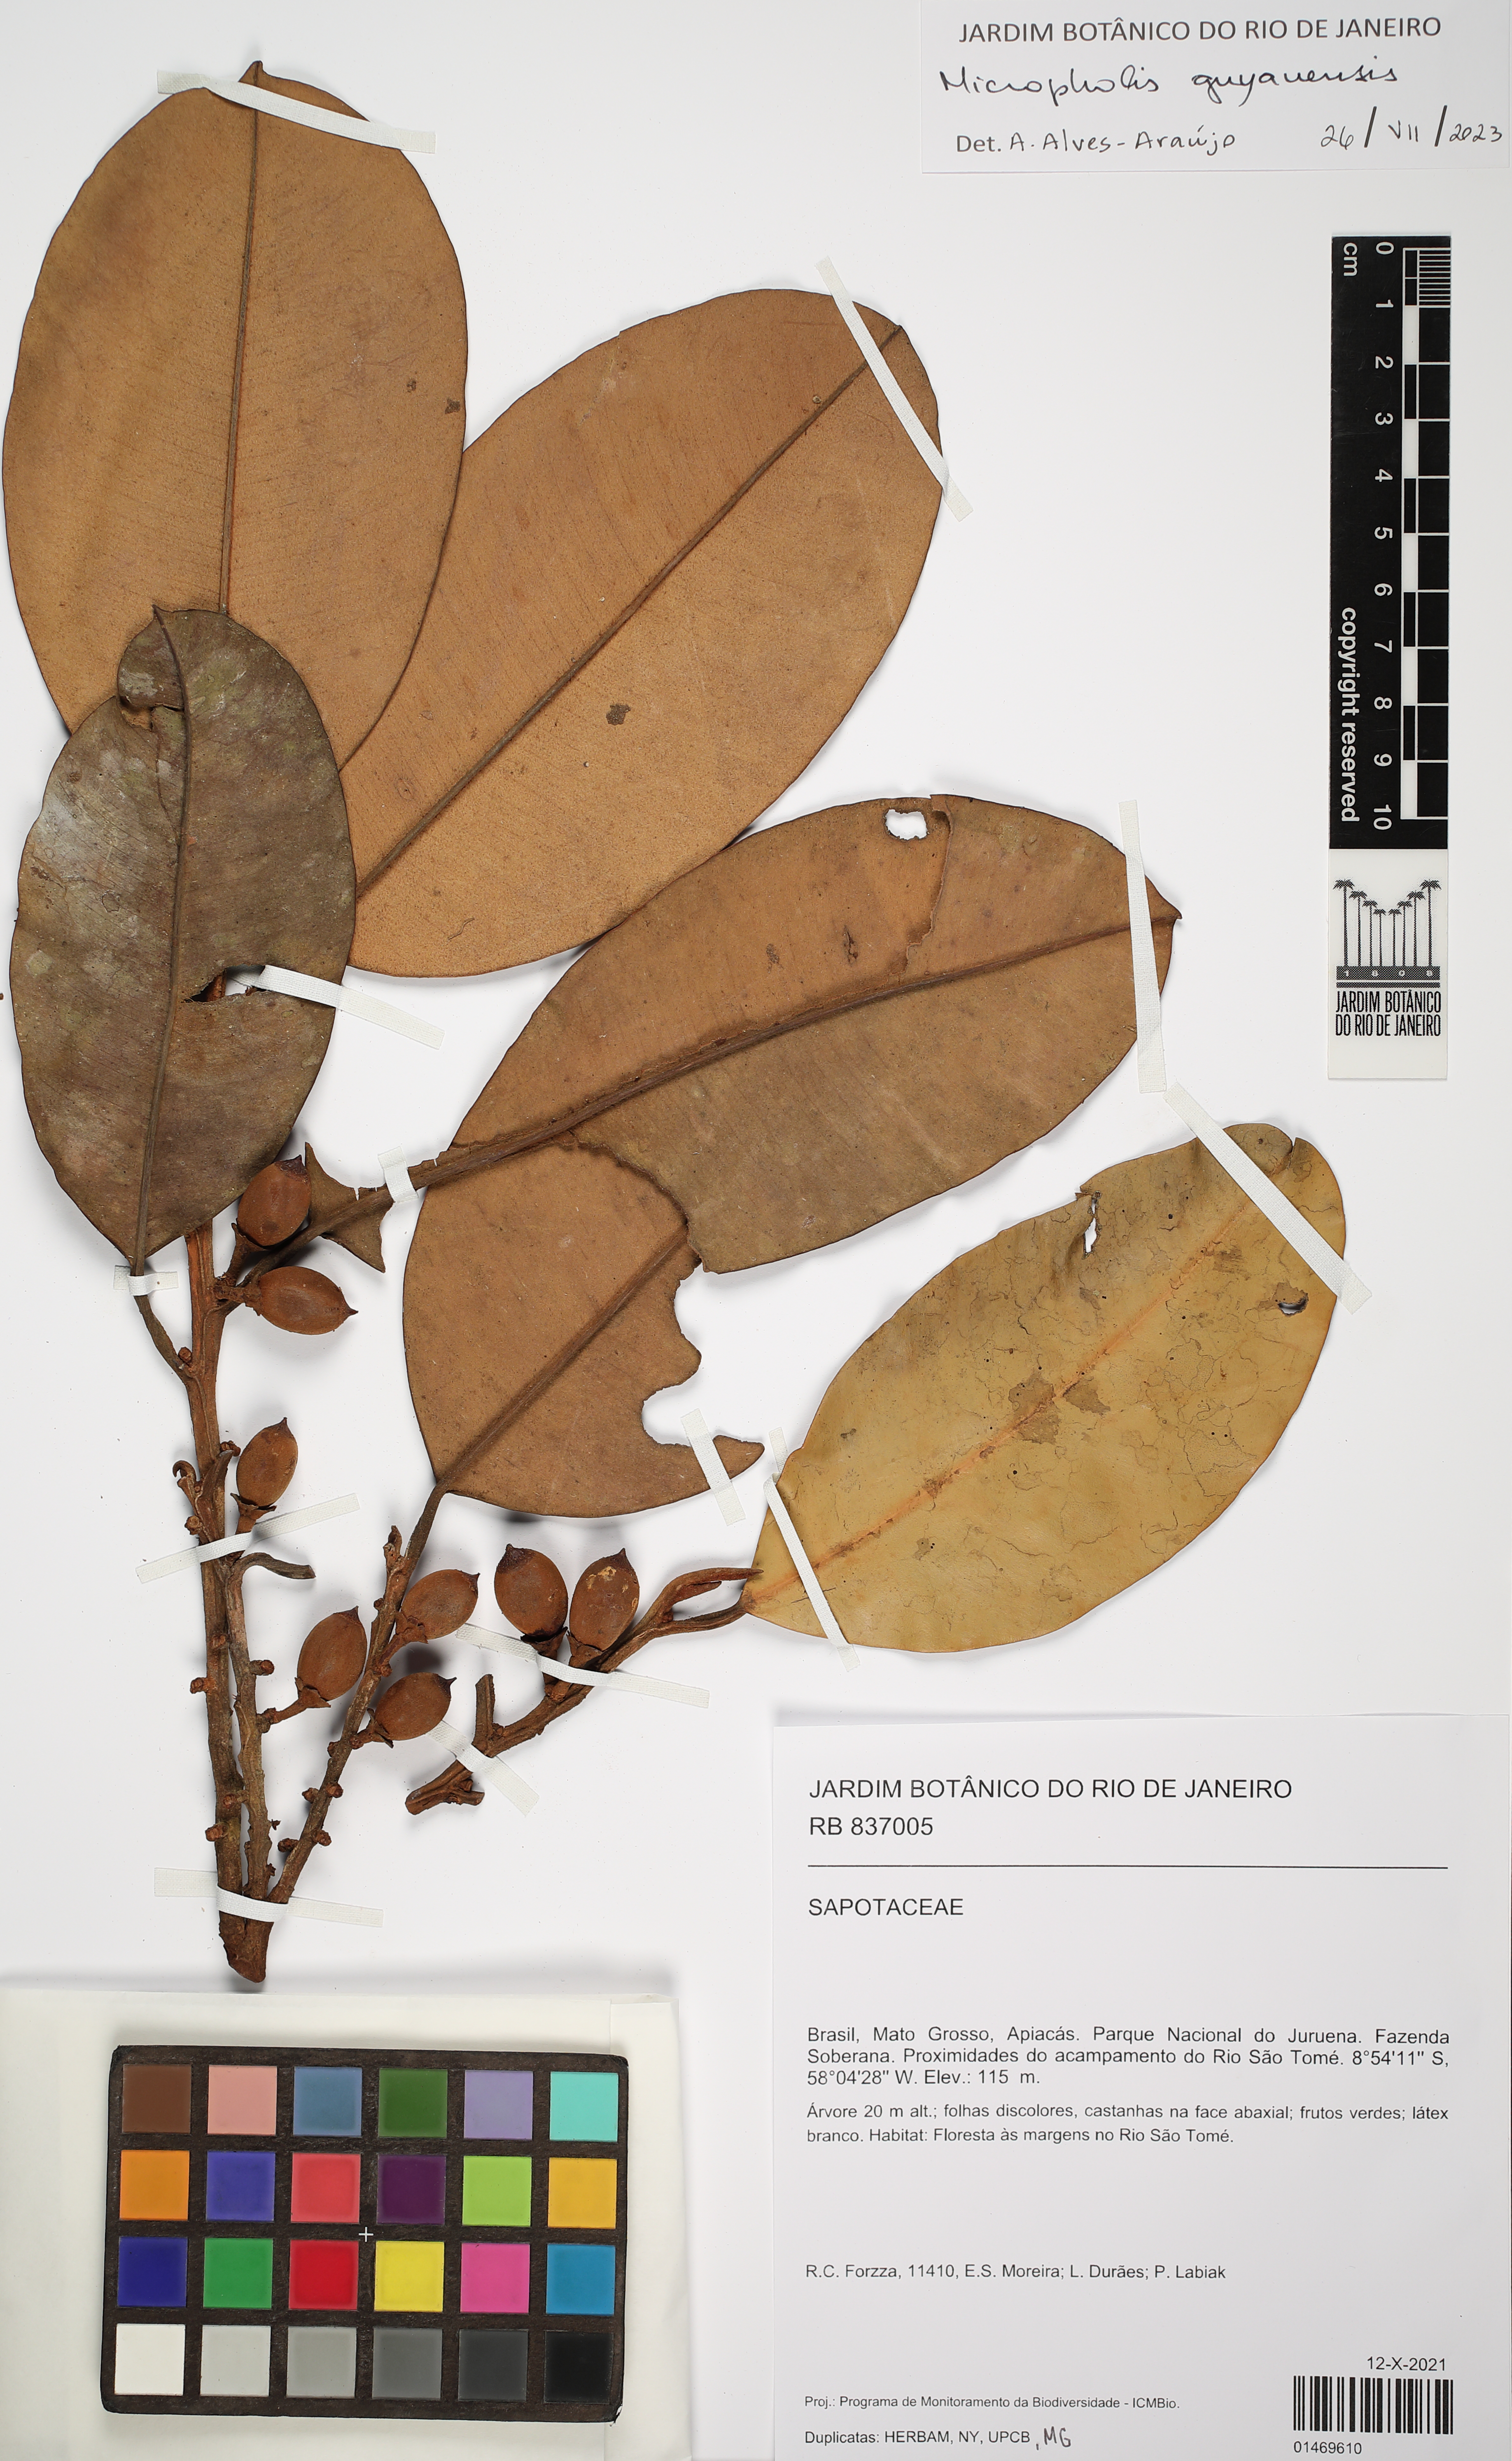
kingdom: Plantae
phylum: Tracheophyta
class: Magnoliopsida
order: Ericales
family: Sapotaceae
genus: Micropholis
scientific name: Micropholis guyanensis
